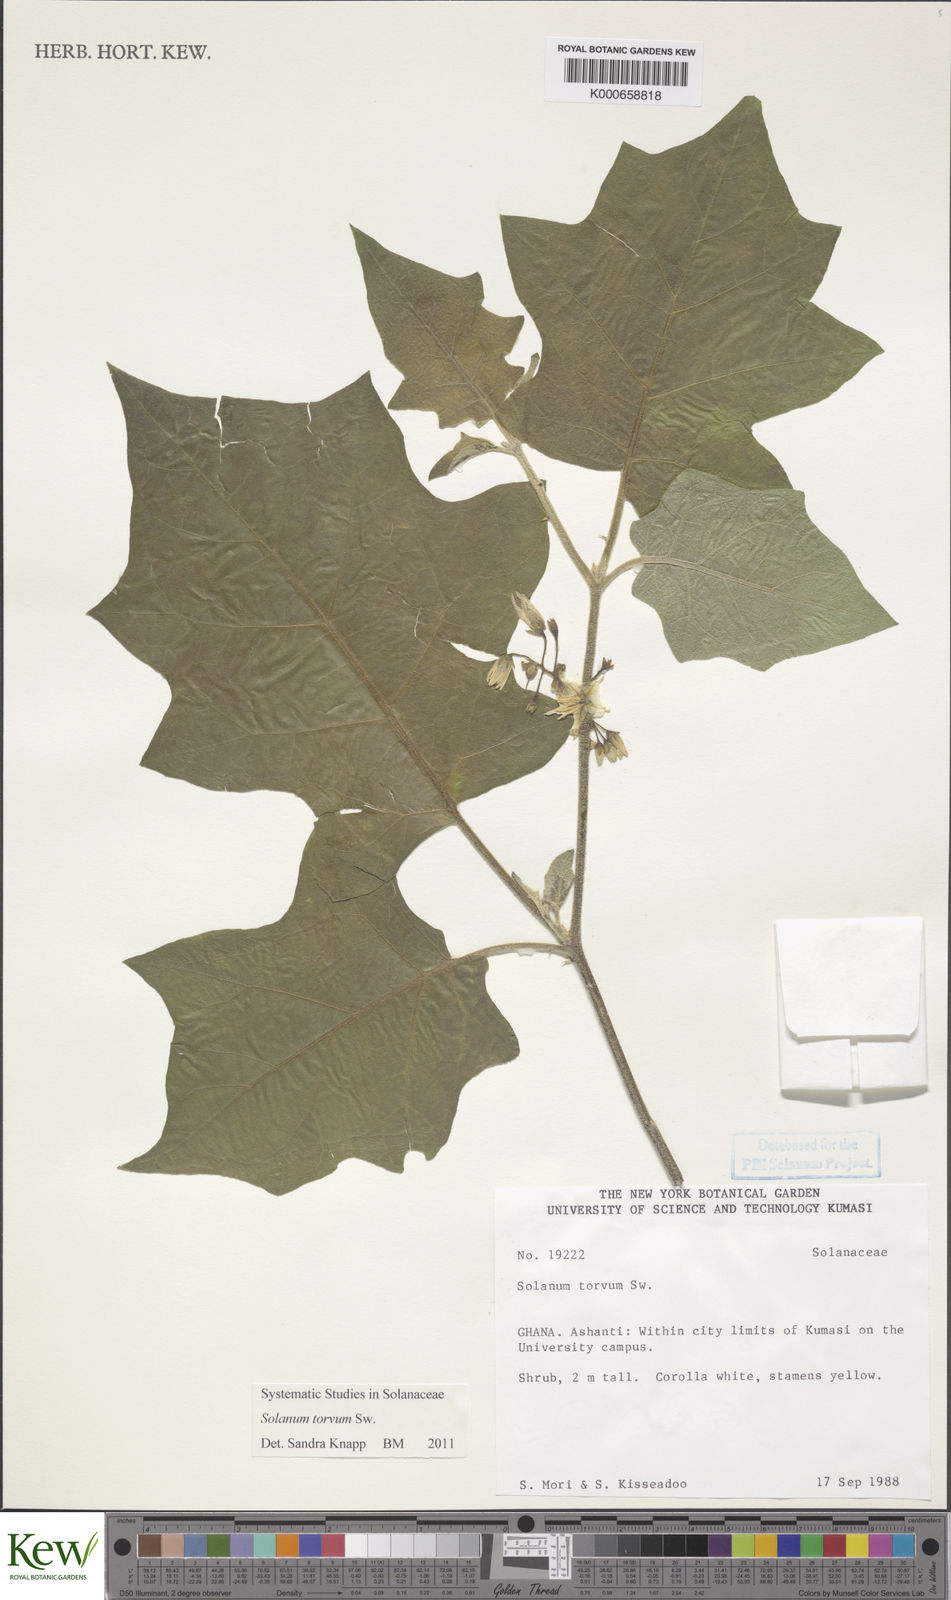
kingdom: Plantae
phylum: Tracheophyta
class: Magnoliopsida
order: Solanales
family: Solanaceae
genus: Solanum
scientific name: Solanum torvum
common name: Turkey berry
